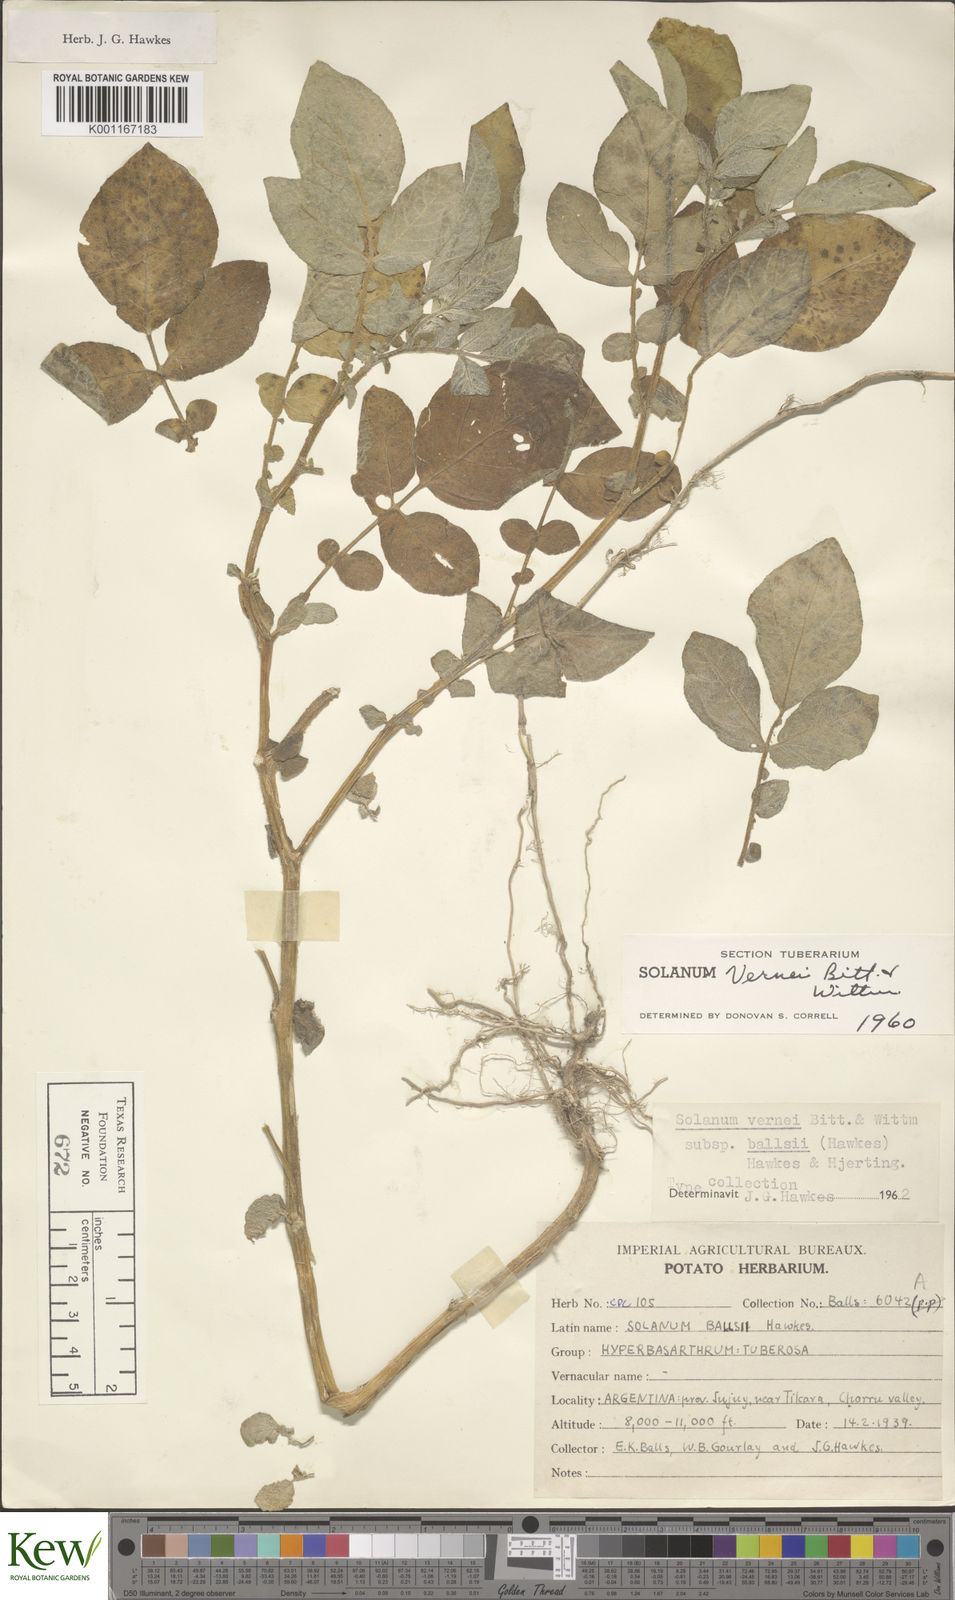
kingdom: Plantae
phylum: Tracheophyta
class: Magnoliopsida
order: Solanales
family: Solanaceae
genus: Solanum
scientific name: Solanum vernei
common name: Purple potato
